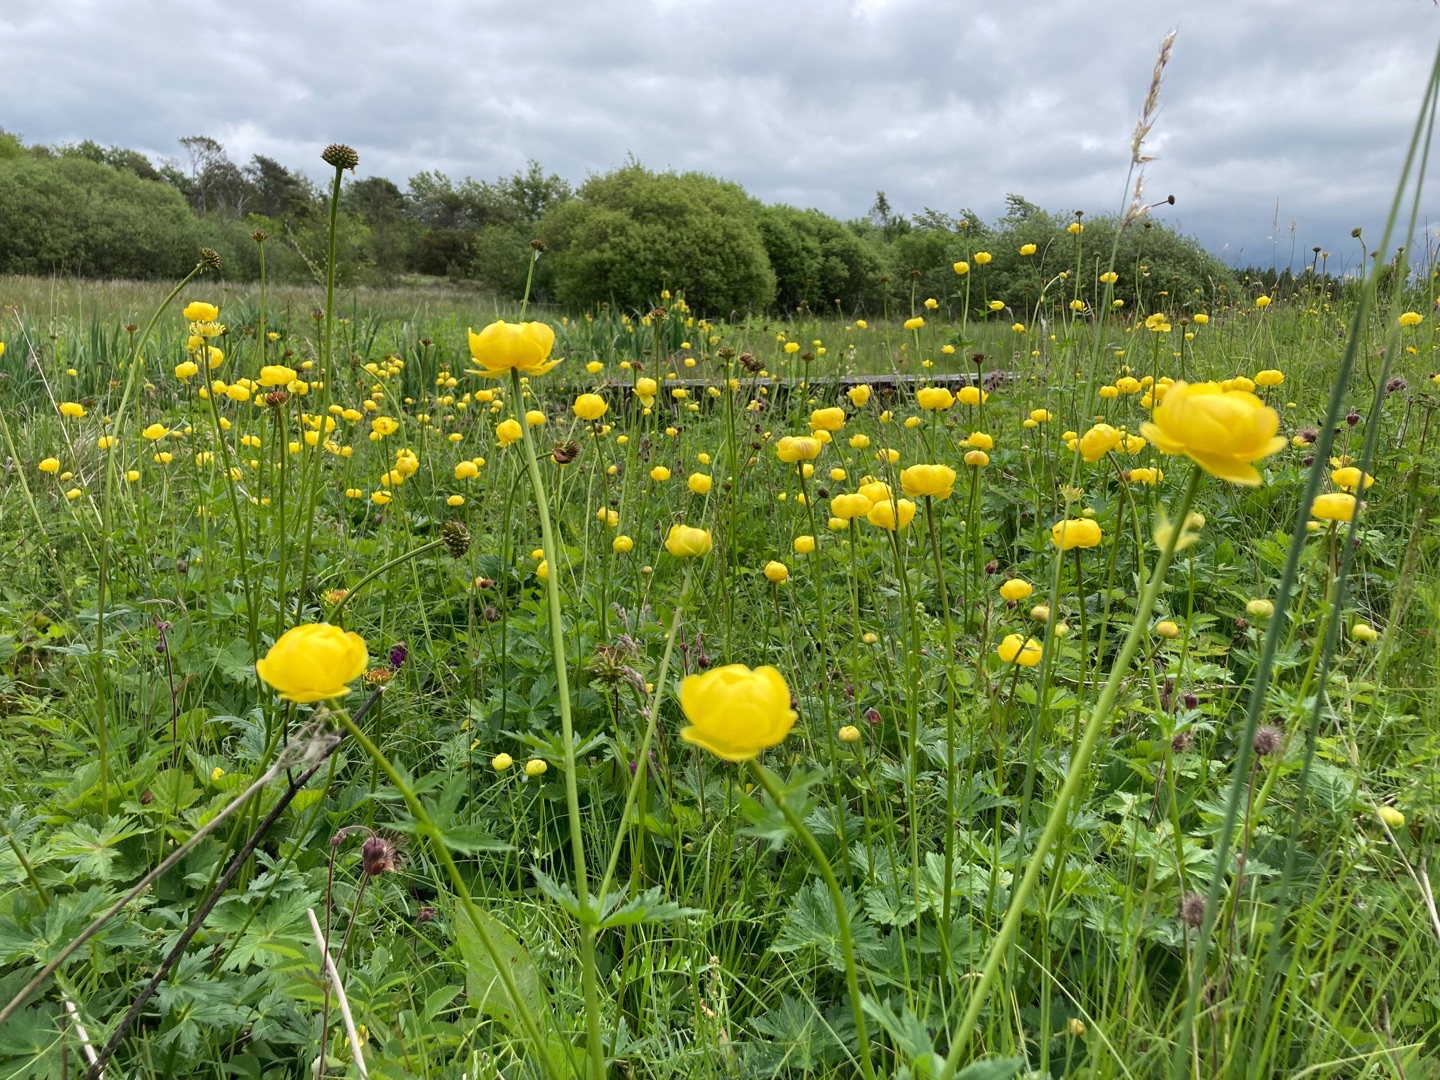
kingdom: Plantae
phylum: Tracheophyta
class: Magnoliopsida
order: Ranunculales
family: Ranunculaceae
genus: Trollius
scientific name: Trollius europaeus
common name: Engblomme
